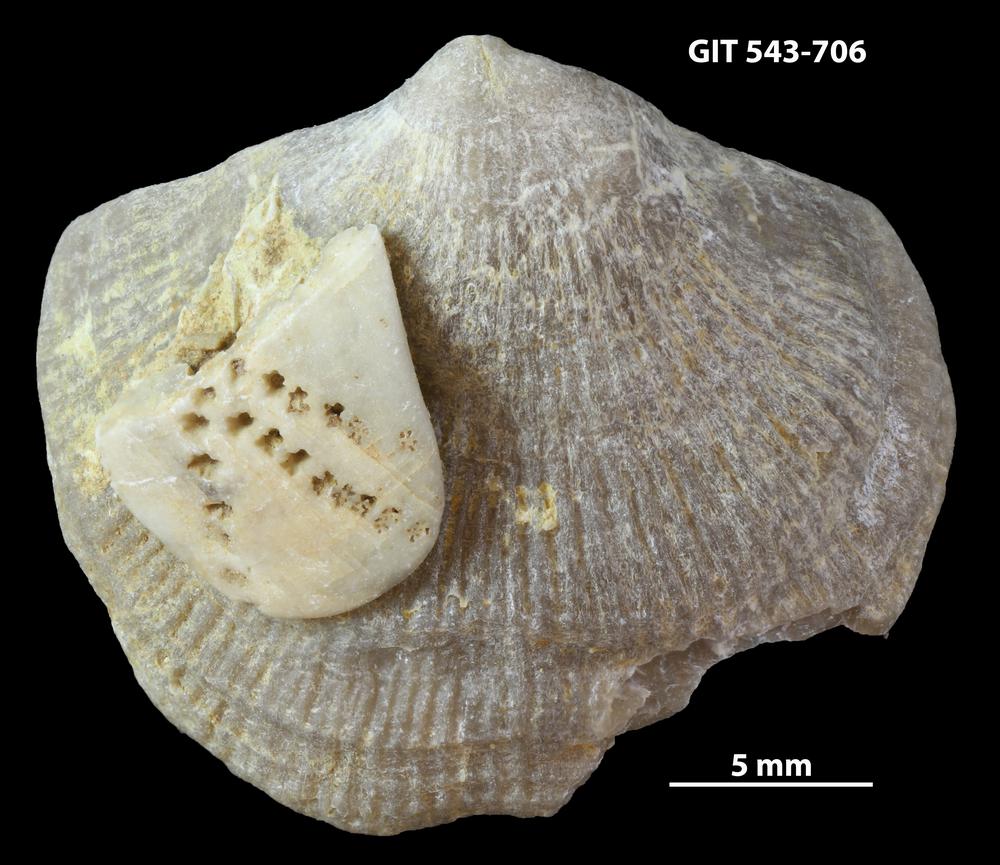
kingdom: Animalia
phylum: Brachiopoda
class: Rhynchonellata
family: Clitambonitidae
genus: Vellamo
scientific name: Vellamo oandoensis
